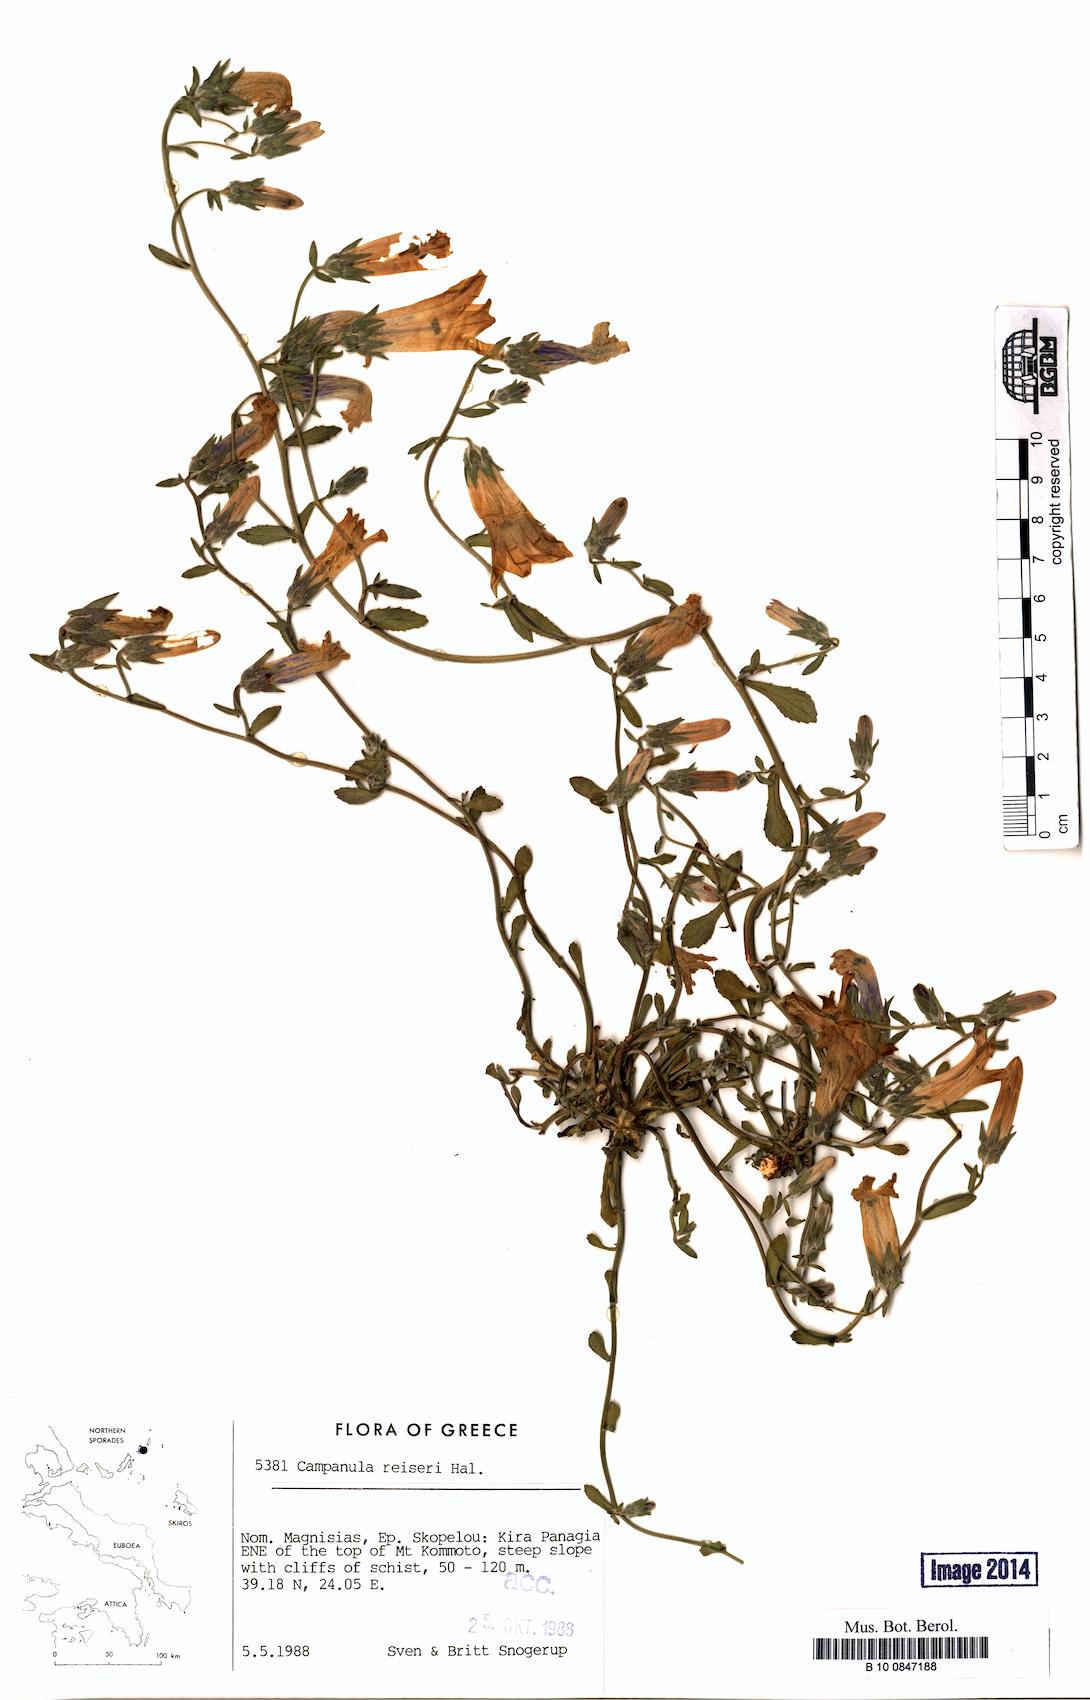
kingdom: Plantae
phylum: Tracheophyta
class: Magnoliopsida
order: Asterales
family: Campanulaceae
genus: Campanula
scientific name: Campanula reiseri
